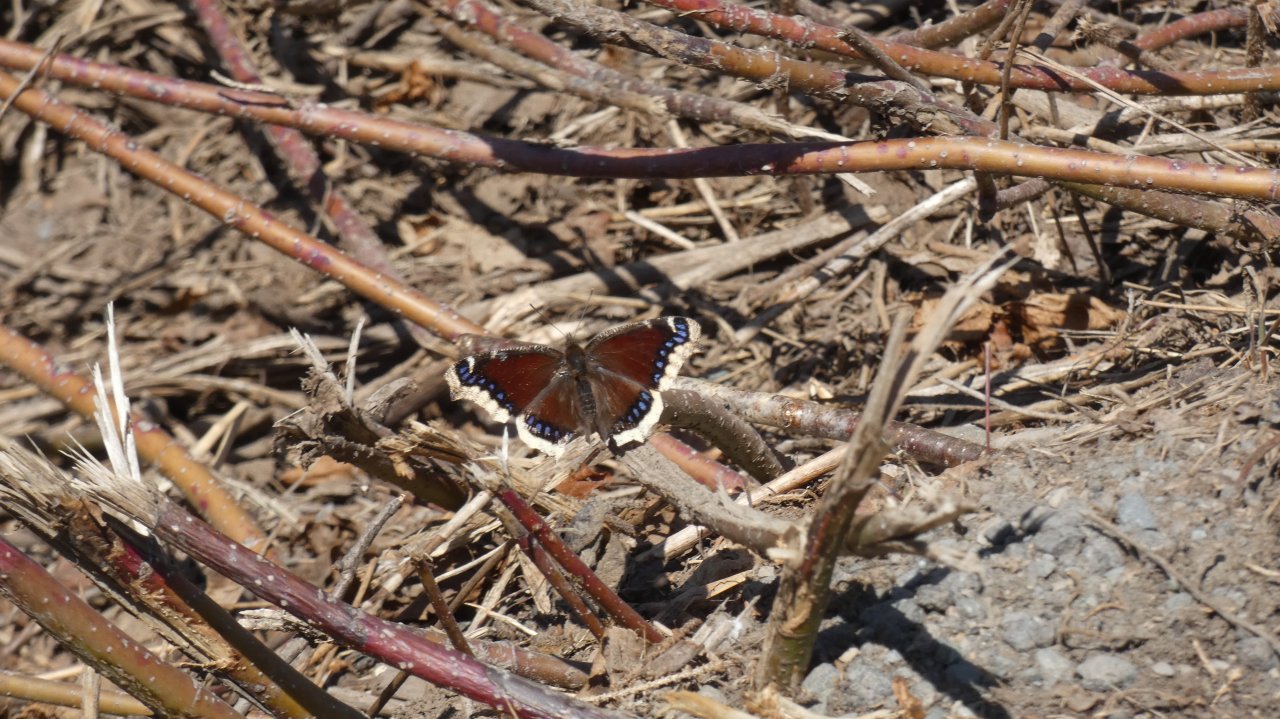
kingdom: Animalia
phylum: Arthropoda
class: Insecta
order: Lepidoptera
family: Nymphalidae
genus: Nymphalis
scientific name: Nymphalis antiopa
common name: Mourning Cloak
